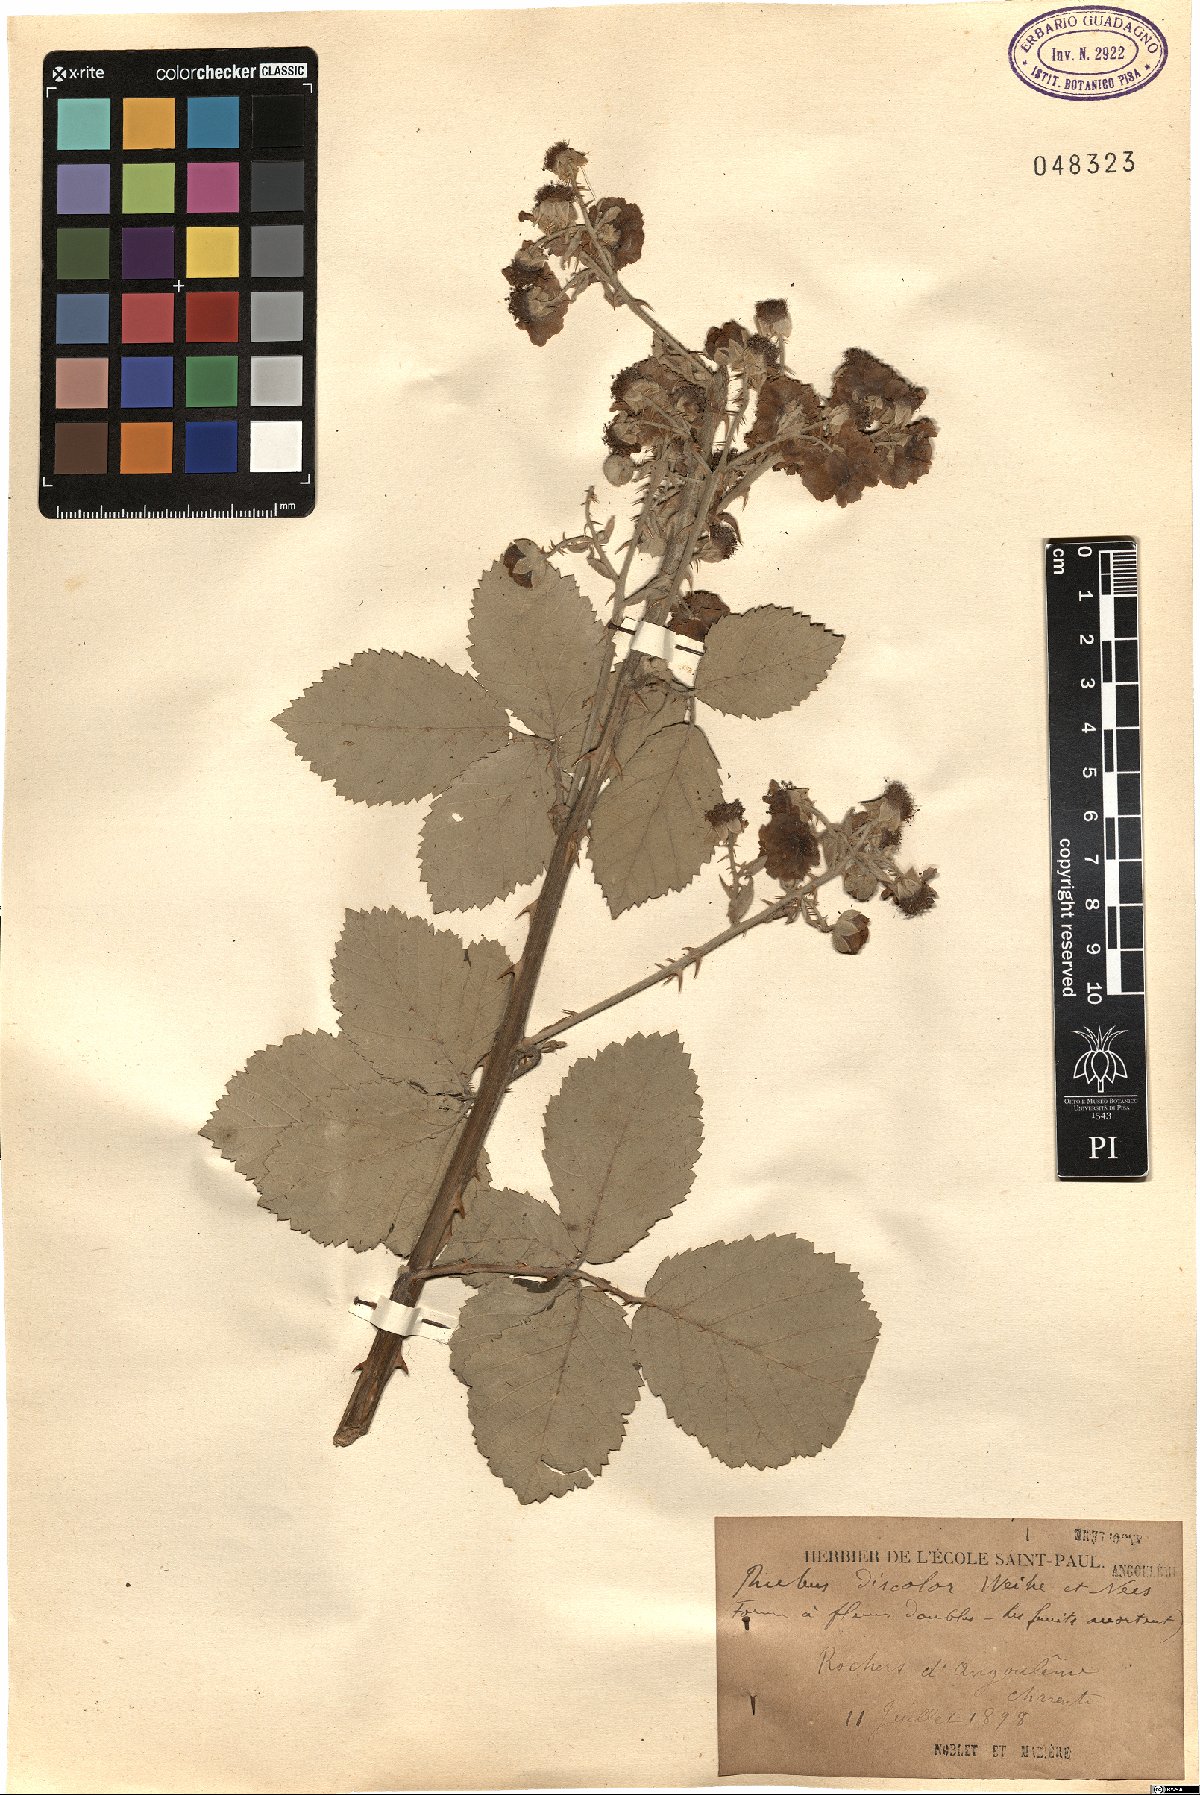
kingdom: Plantae
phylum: Tracheophyta
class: Magnoliopsida
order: Rosales
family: Rosaceae
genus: Rubus
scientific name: Rubus ulmifolius
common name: Elmleaf blackberry
